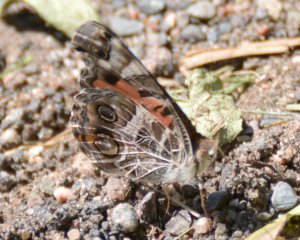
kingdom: Animalia
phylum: Arthropoda
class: Insecta
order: Lepidoptera
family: Nymphalidae
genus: Vanessa
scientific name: Vanessa virginiensis
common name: American Lady
